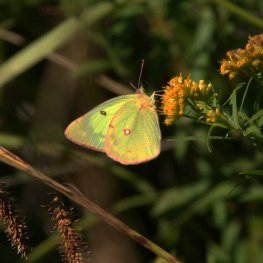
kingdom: Animalia
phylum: Arthropoda
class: Insecta
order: Lepidoptera
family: Pieridae
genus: Colias
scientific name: Colias philodice
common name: Clouded Sulphur
